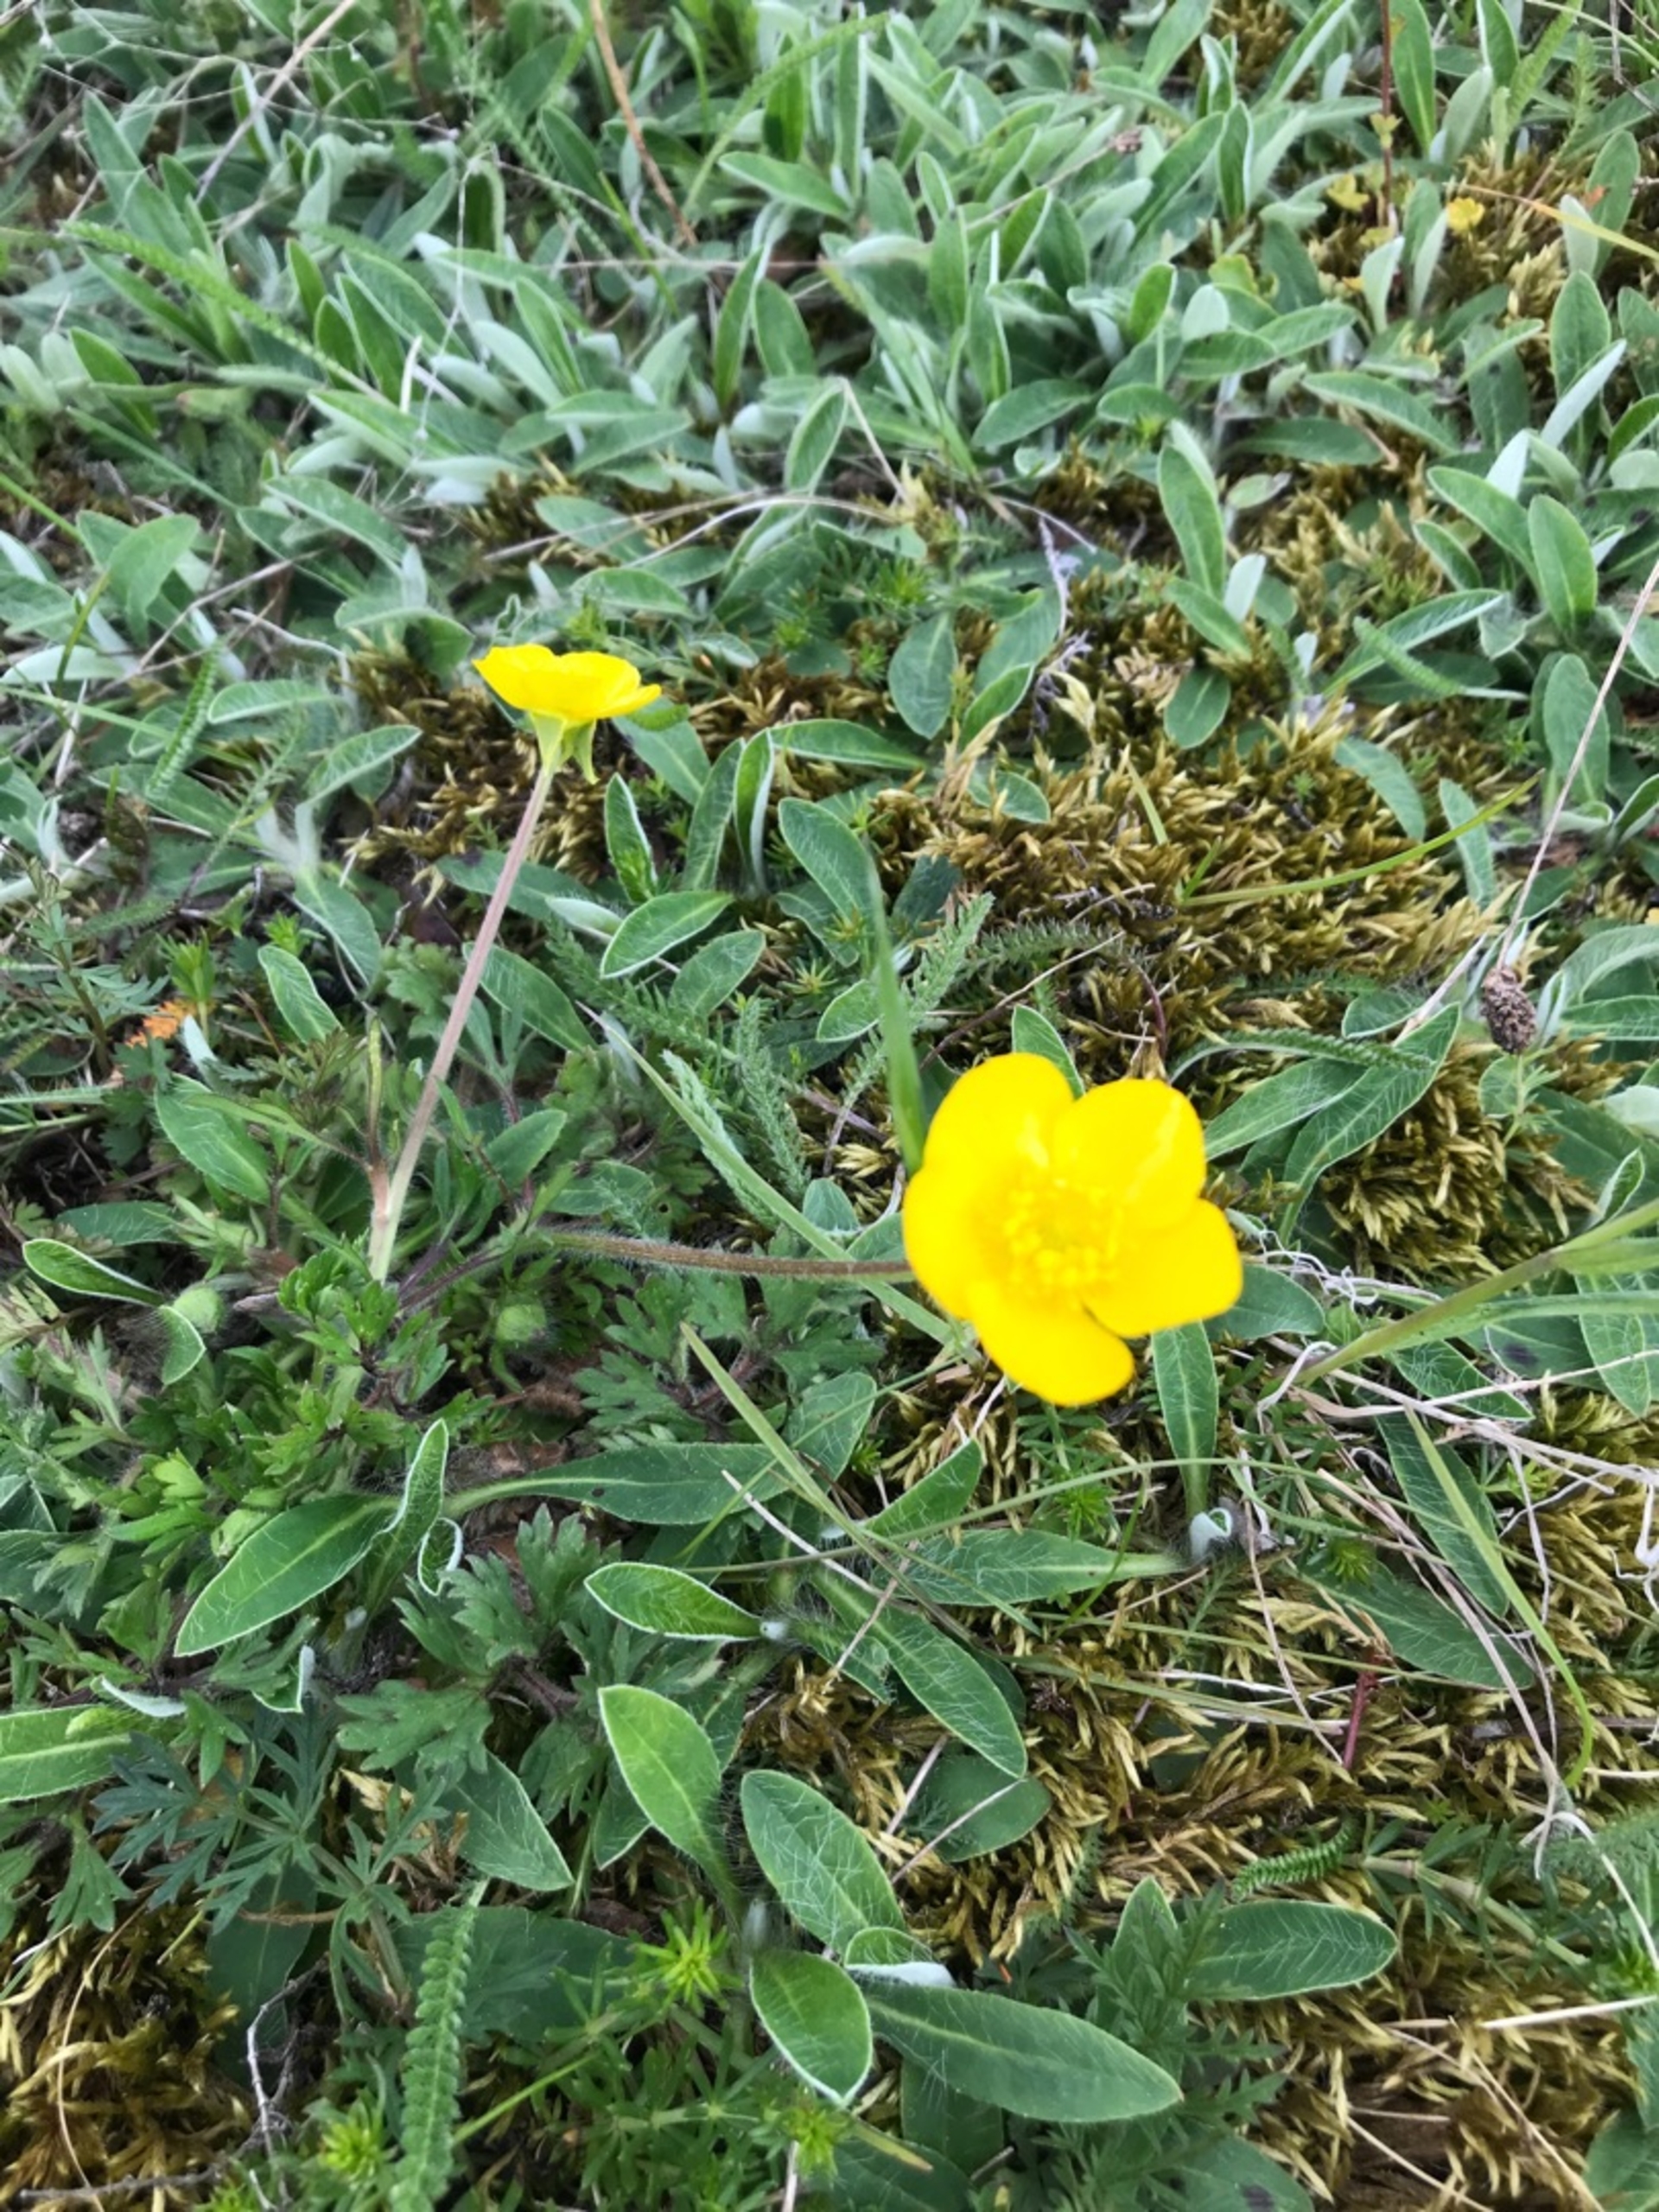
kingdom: Plantae
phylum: Tracheophyta
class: Magnoliopsida
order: Ranunculales
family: Ranunculaceae
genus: Ranunculus
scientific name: Ranunculus bulbosus
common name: Knold-ranunkel
